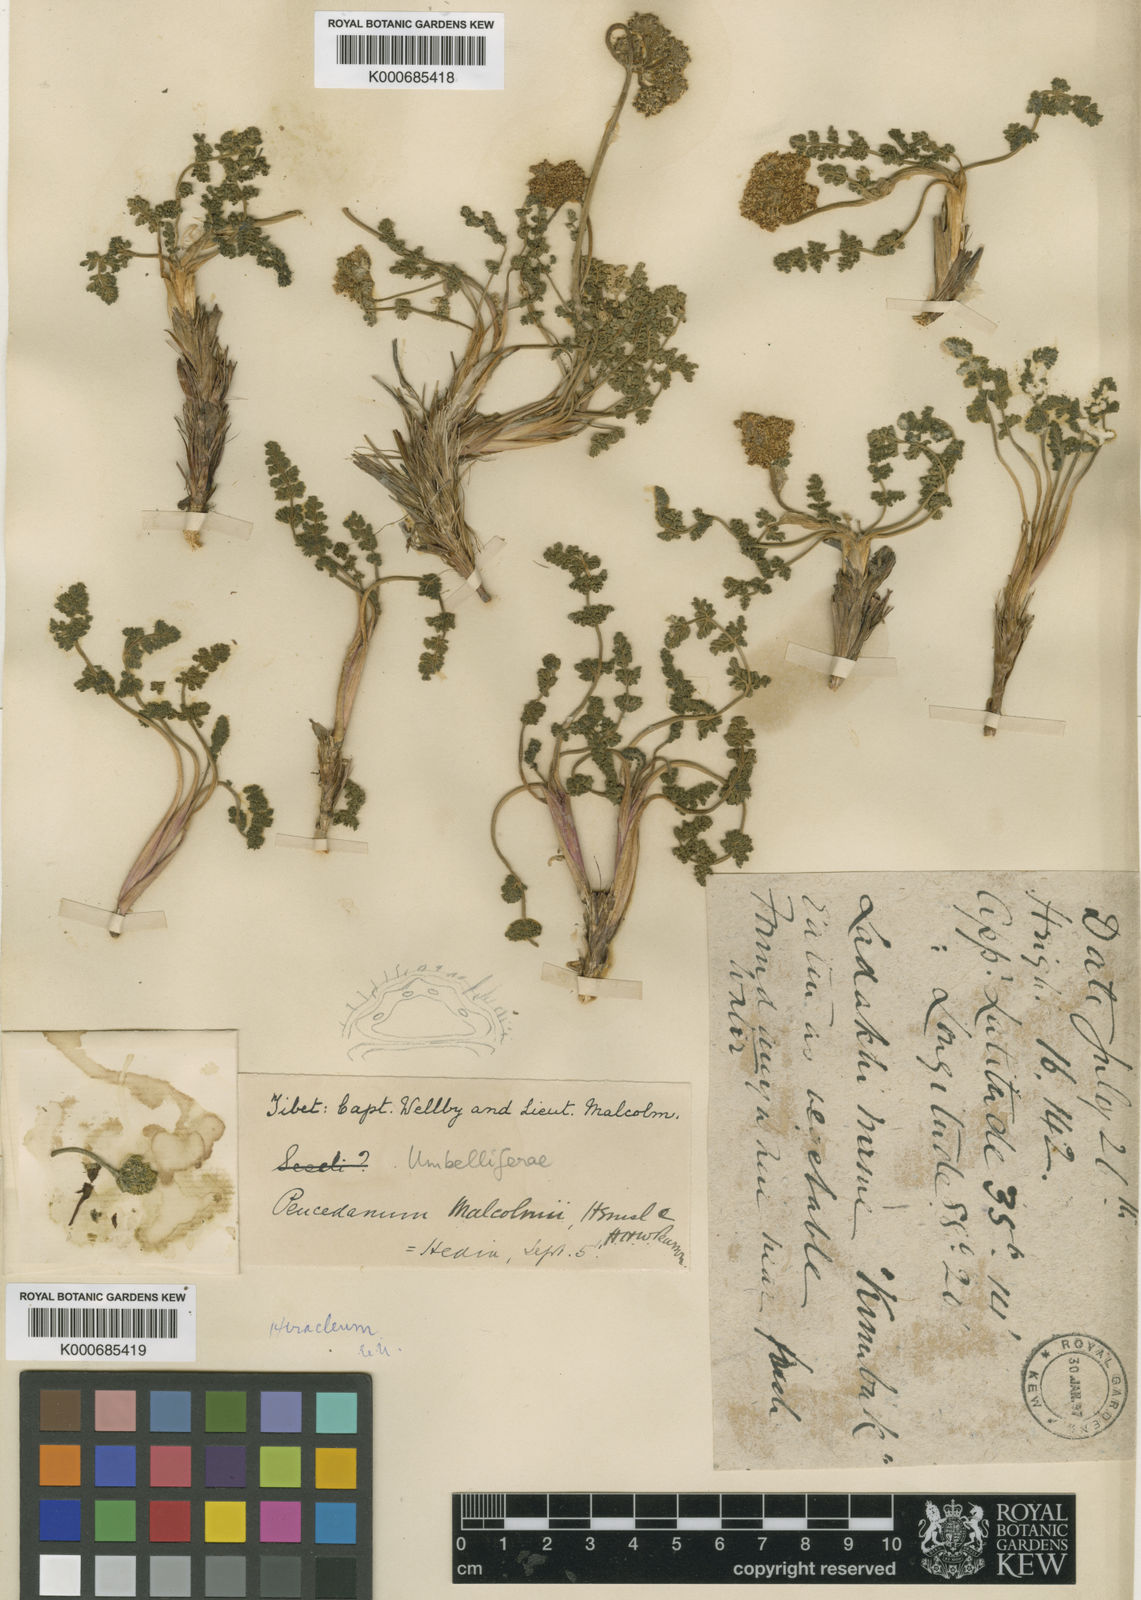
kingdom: Plantae
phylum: Tracheophyta
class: Magnoliopsida
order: Apiales
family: Apiaceae
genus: Semenovia
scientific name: Semenovia malcolmii
